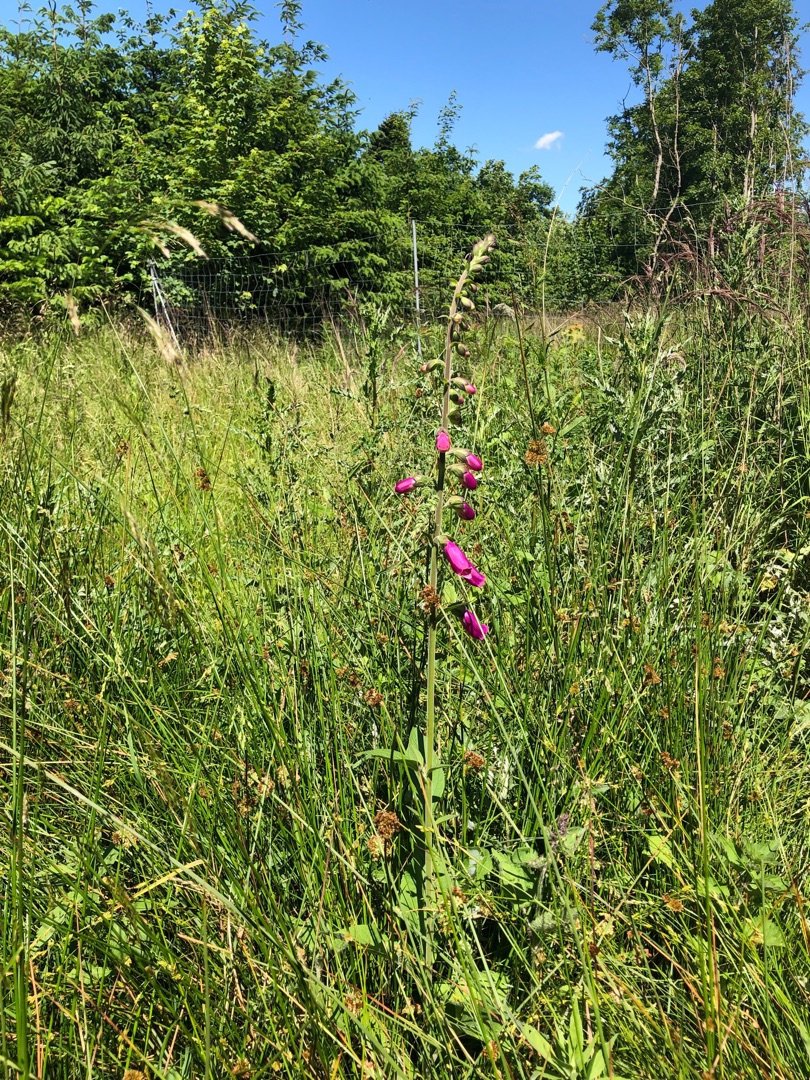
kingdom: Plantae
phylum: Tracheophyta
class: Magnoliopsida
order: Lamiales
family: Plantaginaceae
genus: Digitalis
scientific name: Digitalis purpurea
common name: Almindelig fingerbøl
